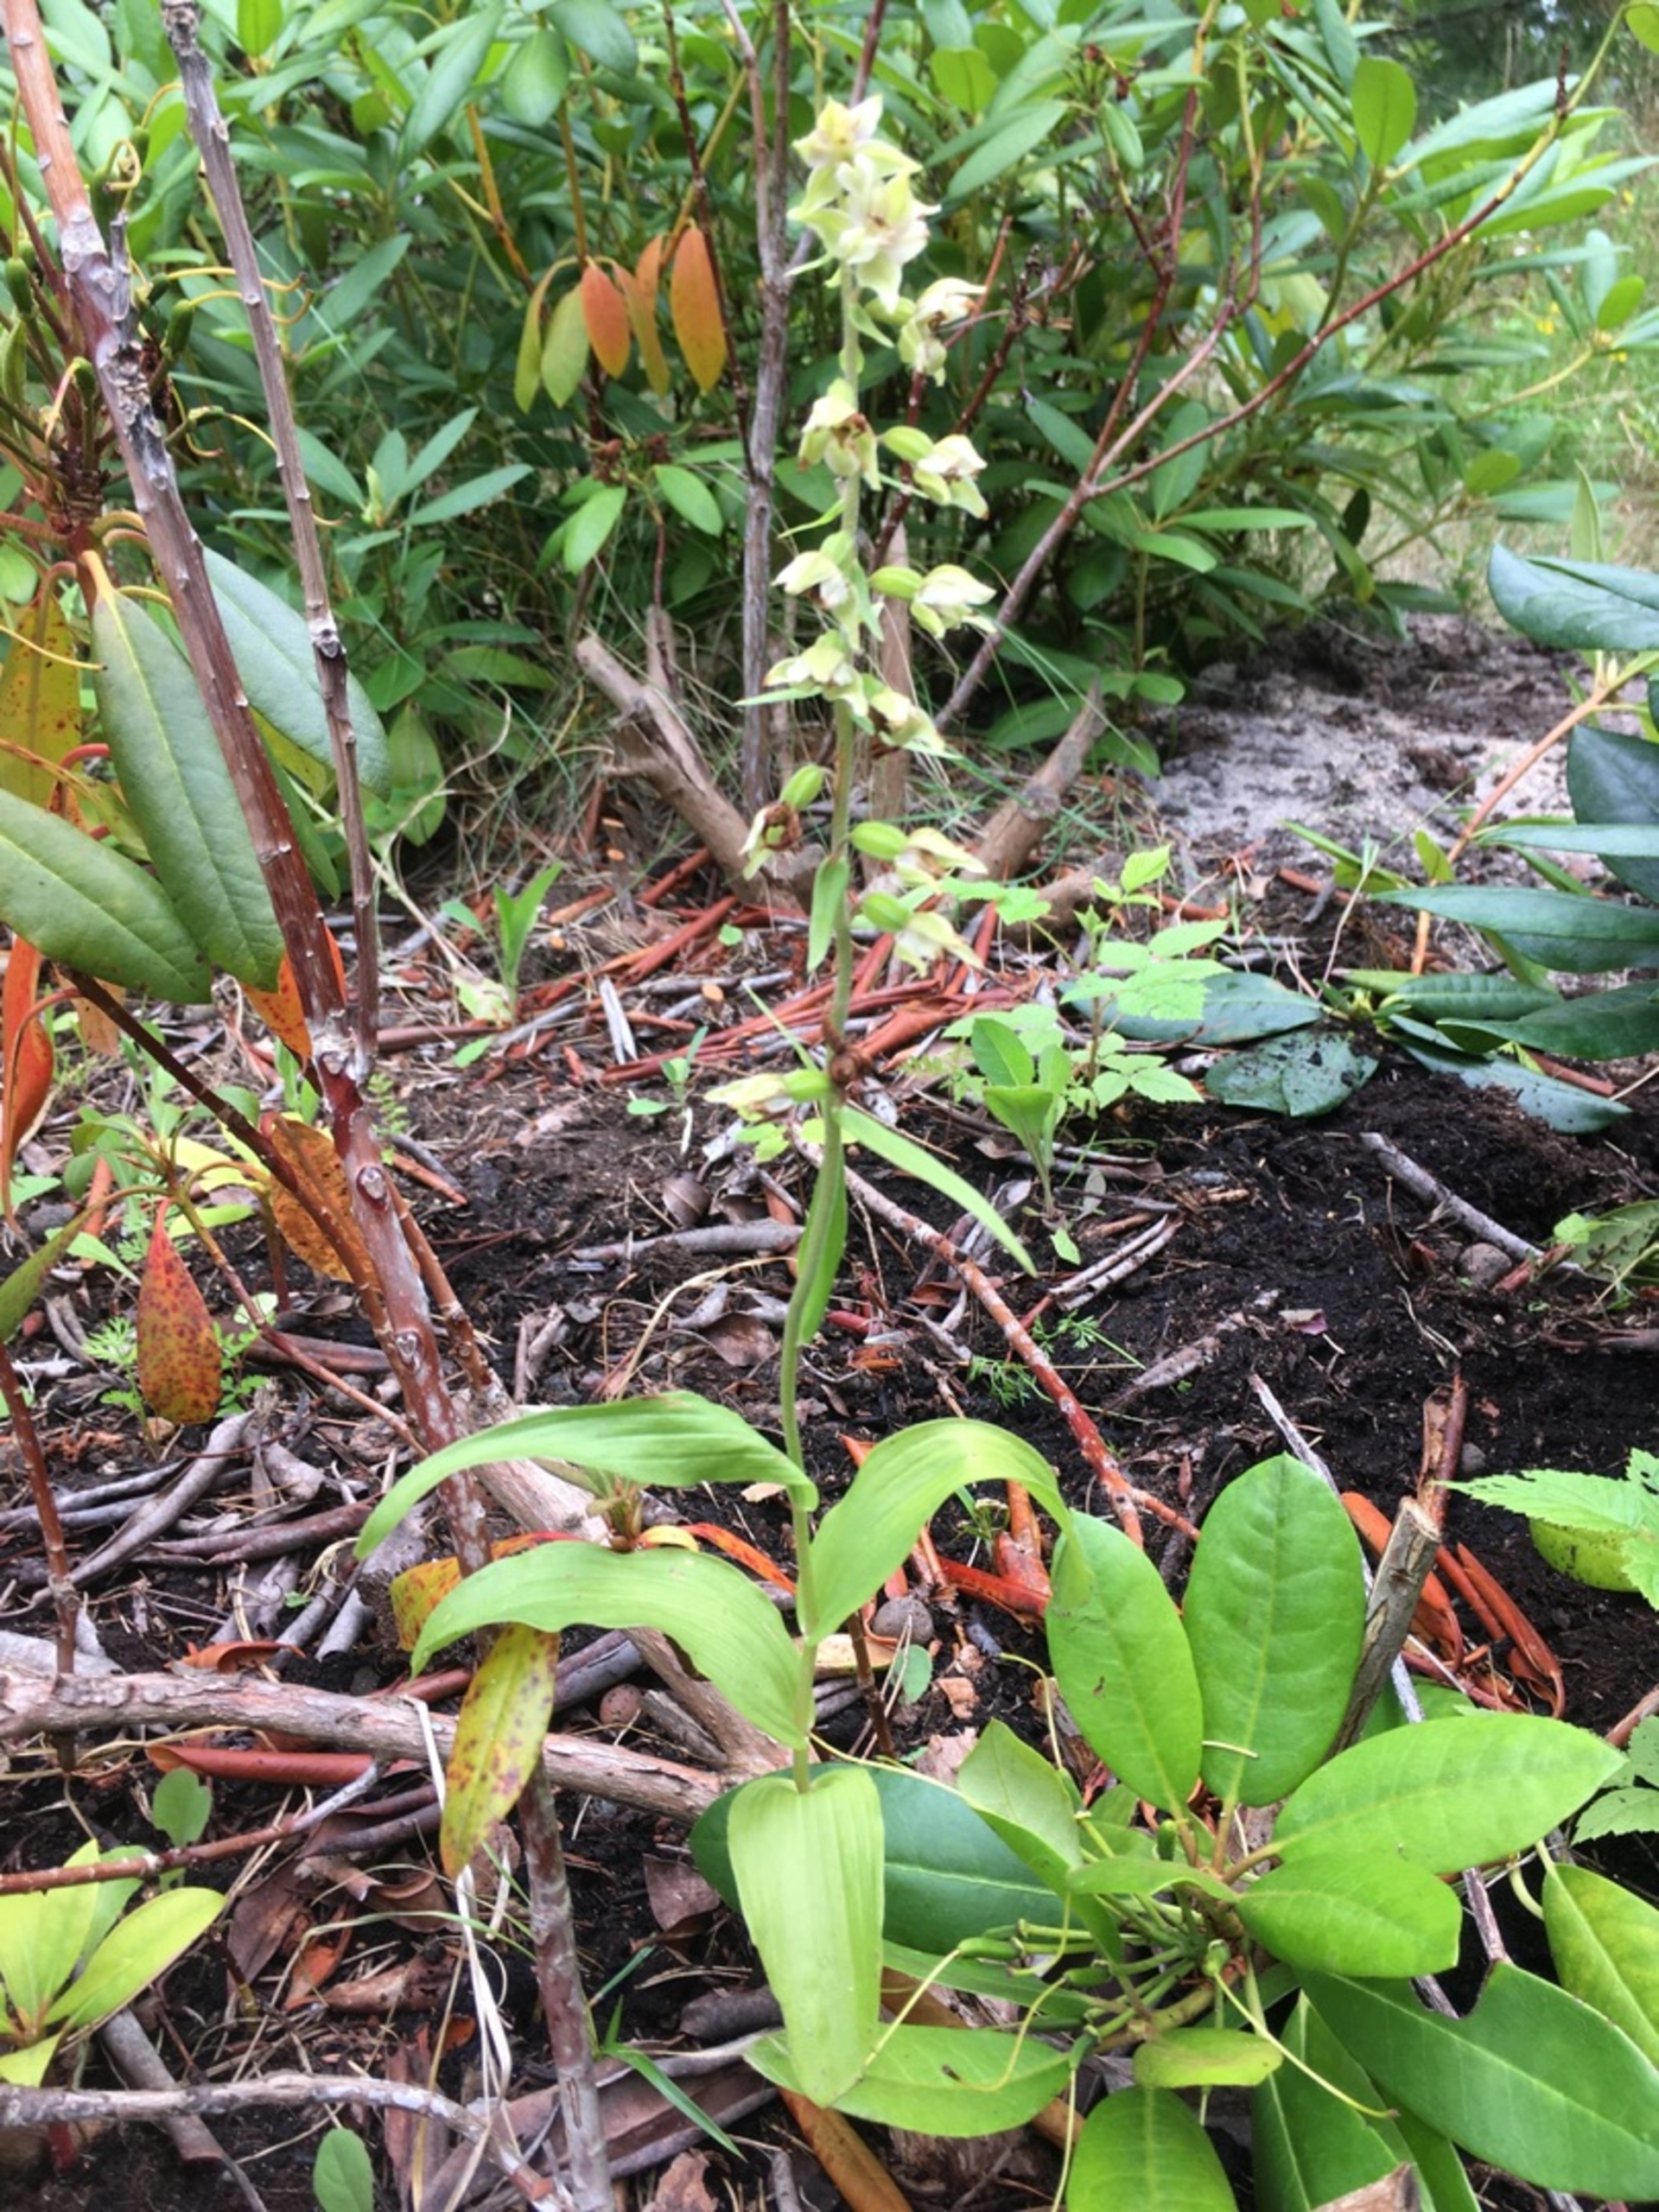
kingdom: Plantae
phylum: Tracheophyta
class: Liliopsida
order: Asparagales
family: Orchidaceae
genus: Epipactis
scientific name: Epipactis helleborine
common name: Skov-hullæbe
